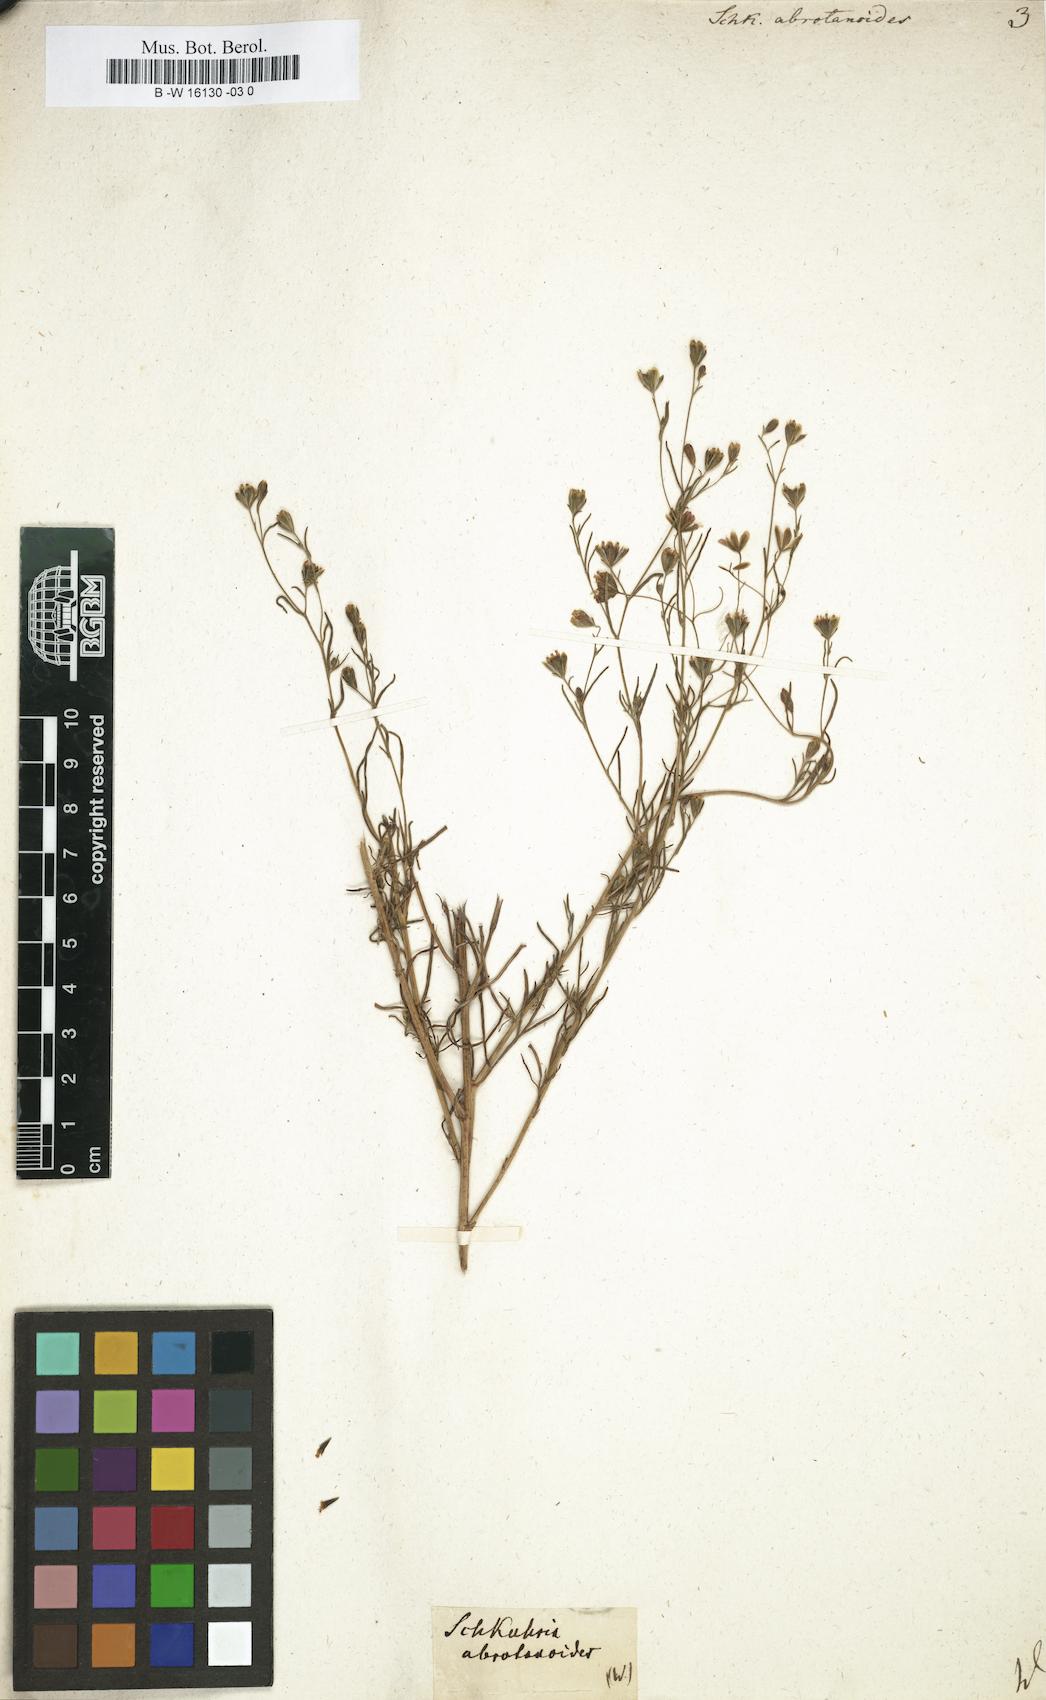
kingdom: Plantae
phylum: Tracheophyta
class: Magnoliopsida
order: Asterales
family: Asteraceae
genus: Schkuhria
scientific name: Schkuhria pinnata
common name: Dwarf marigold
